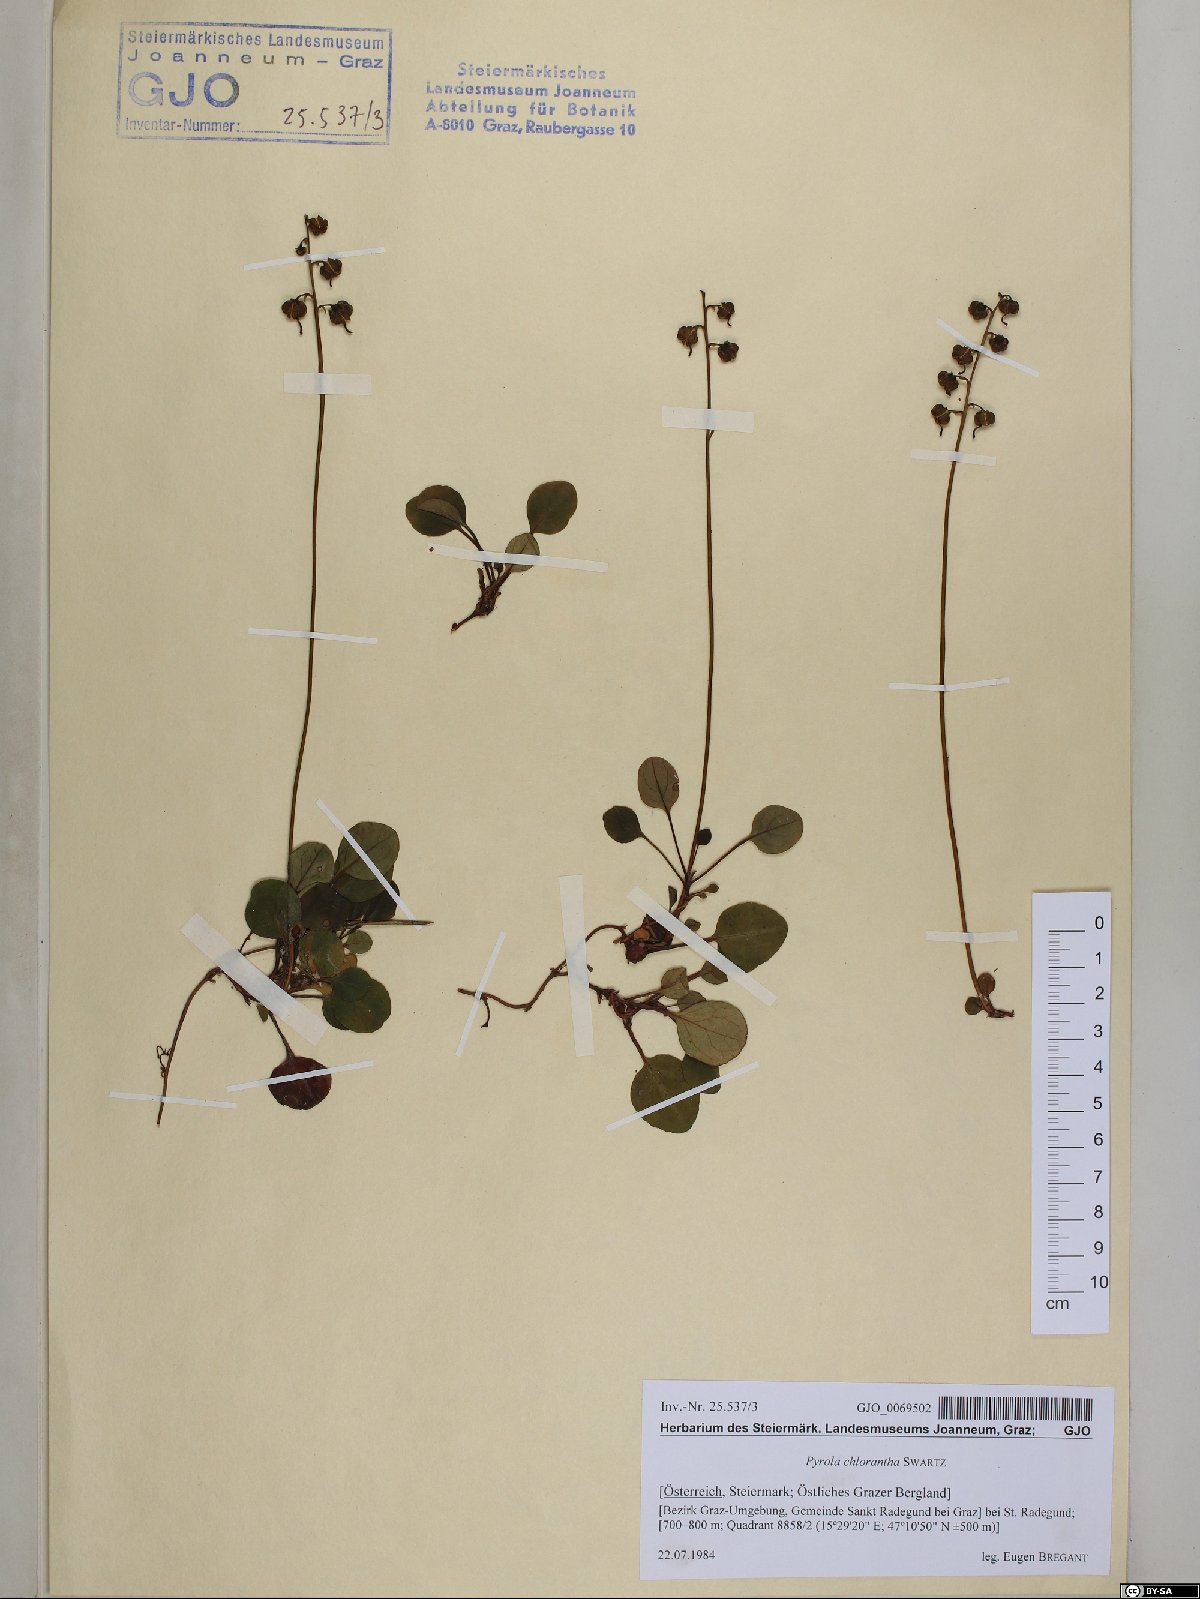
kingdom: Plantae
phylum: Tracheophyta
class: Magnoliopsida
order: Ericales
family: Ericaceae
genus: Pyrola
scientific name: Pyrola chlorantha
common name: Green wintergreen
